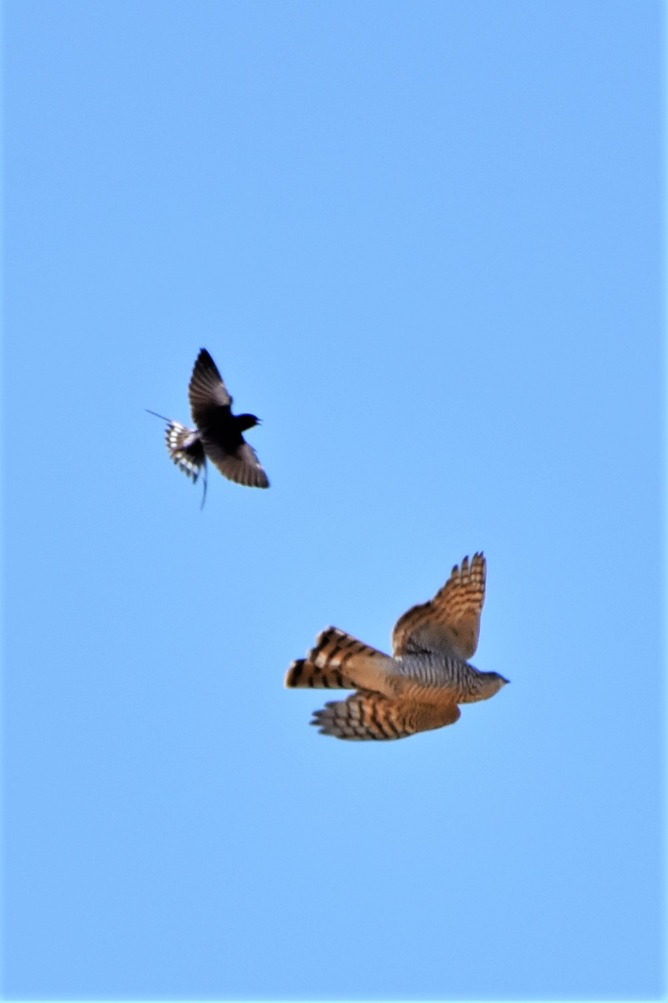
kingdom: Animalia
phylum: Chordata
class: Aves
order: Accipitriformes
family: Accipitridae
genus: Accipiter
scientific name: Accipiter nisus
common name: Spurvehøg
